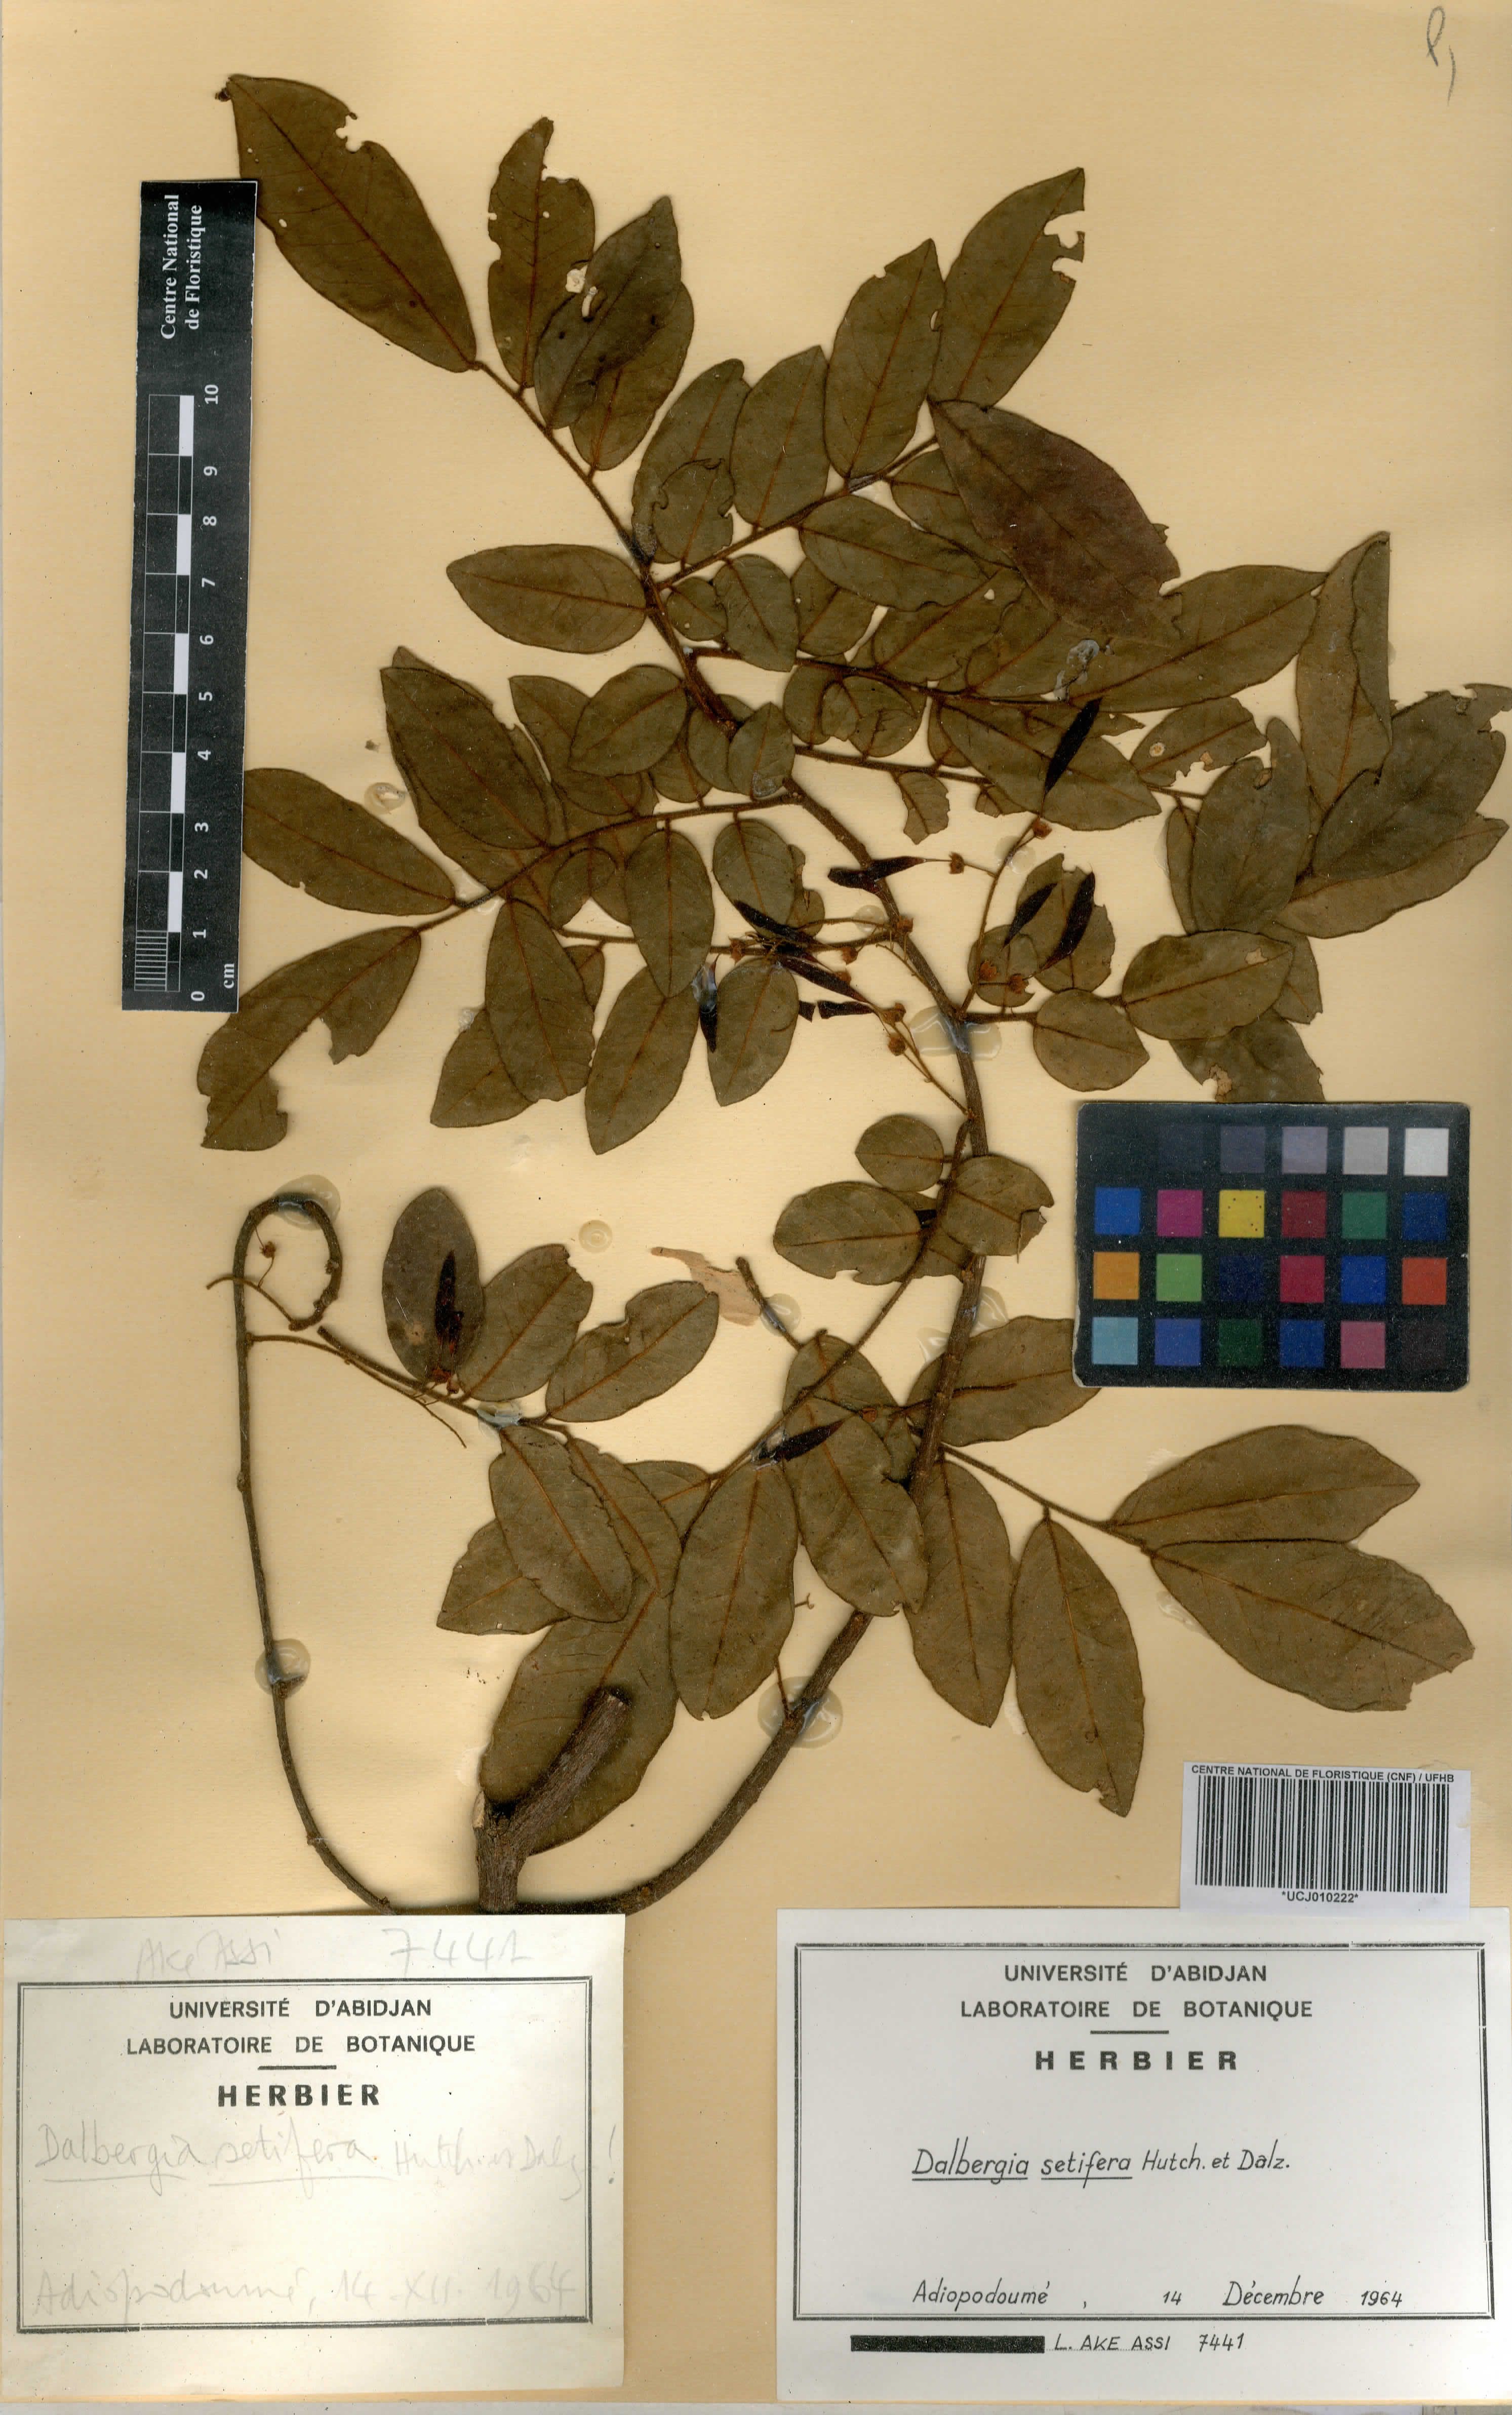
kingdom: Plantae
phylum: Tracheophyta
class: Magnoliopsida
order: Fabales
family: Fabaceae
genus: Dalbergia
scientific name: Dalbergia setifera
